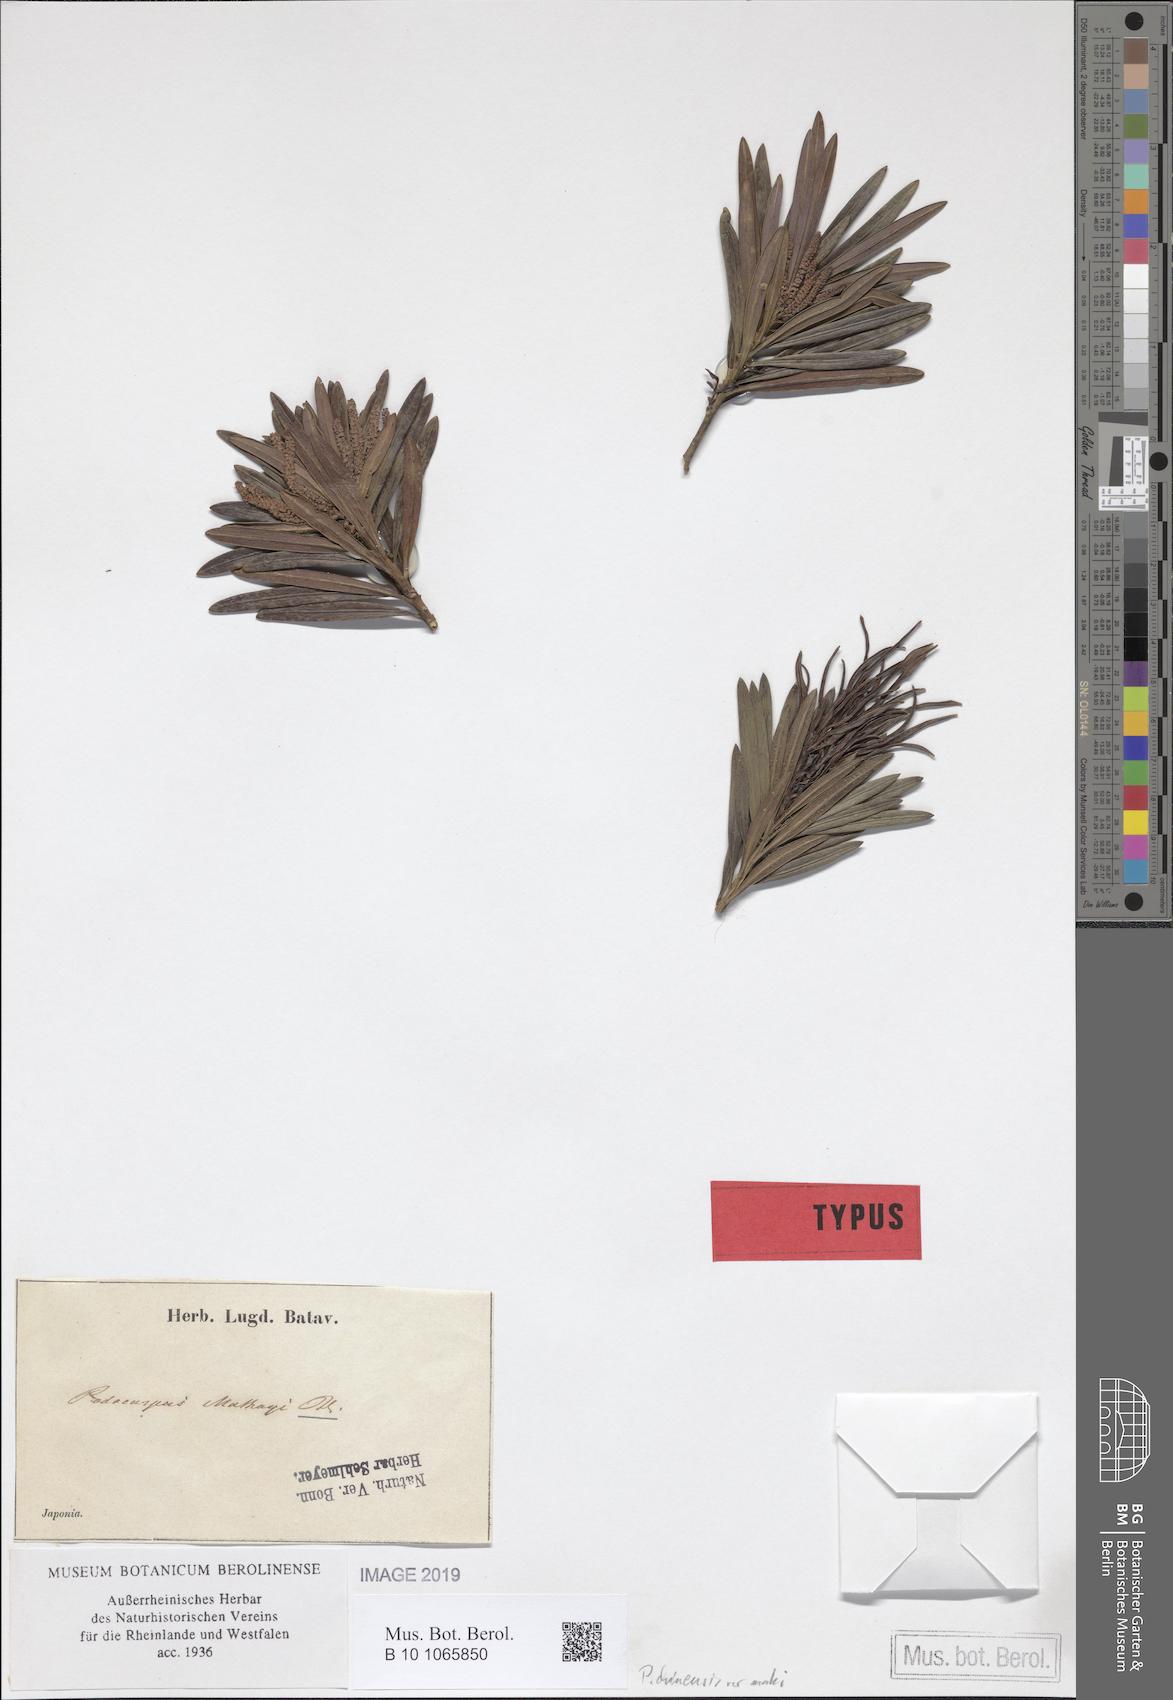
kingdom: Plantae
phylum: Tracheophyta
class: Pinopsida
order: Pinales
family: Podocarpaceae
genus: Podocarpus
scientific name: Podocarpus macrophyllus
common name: Japanese yew
